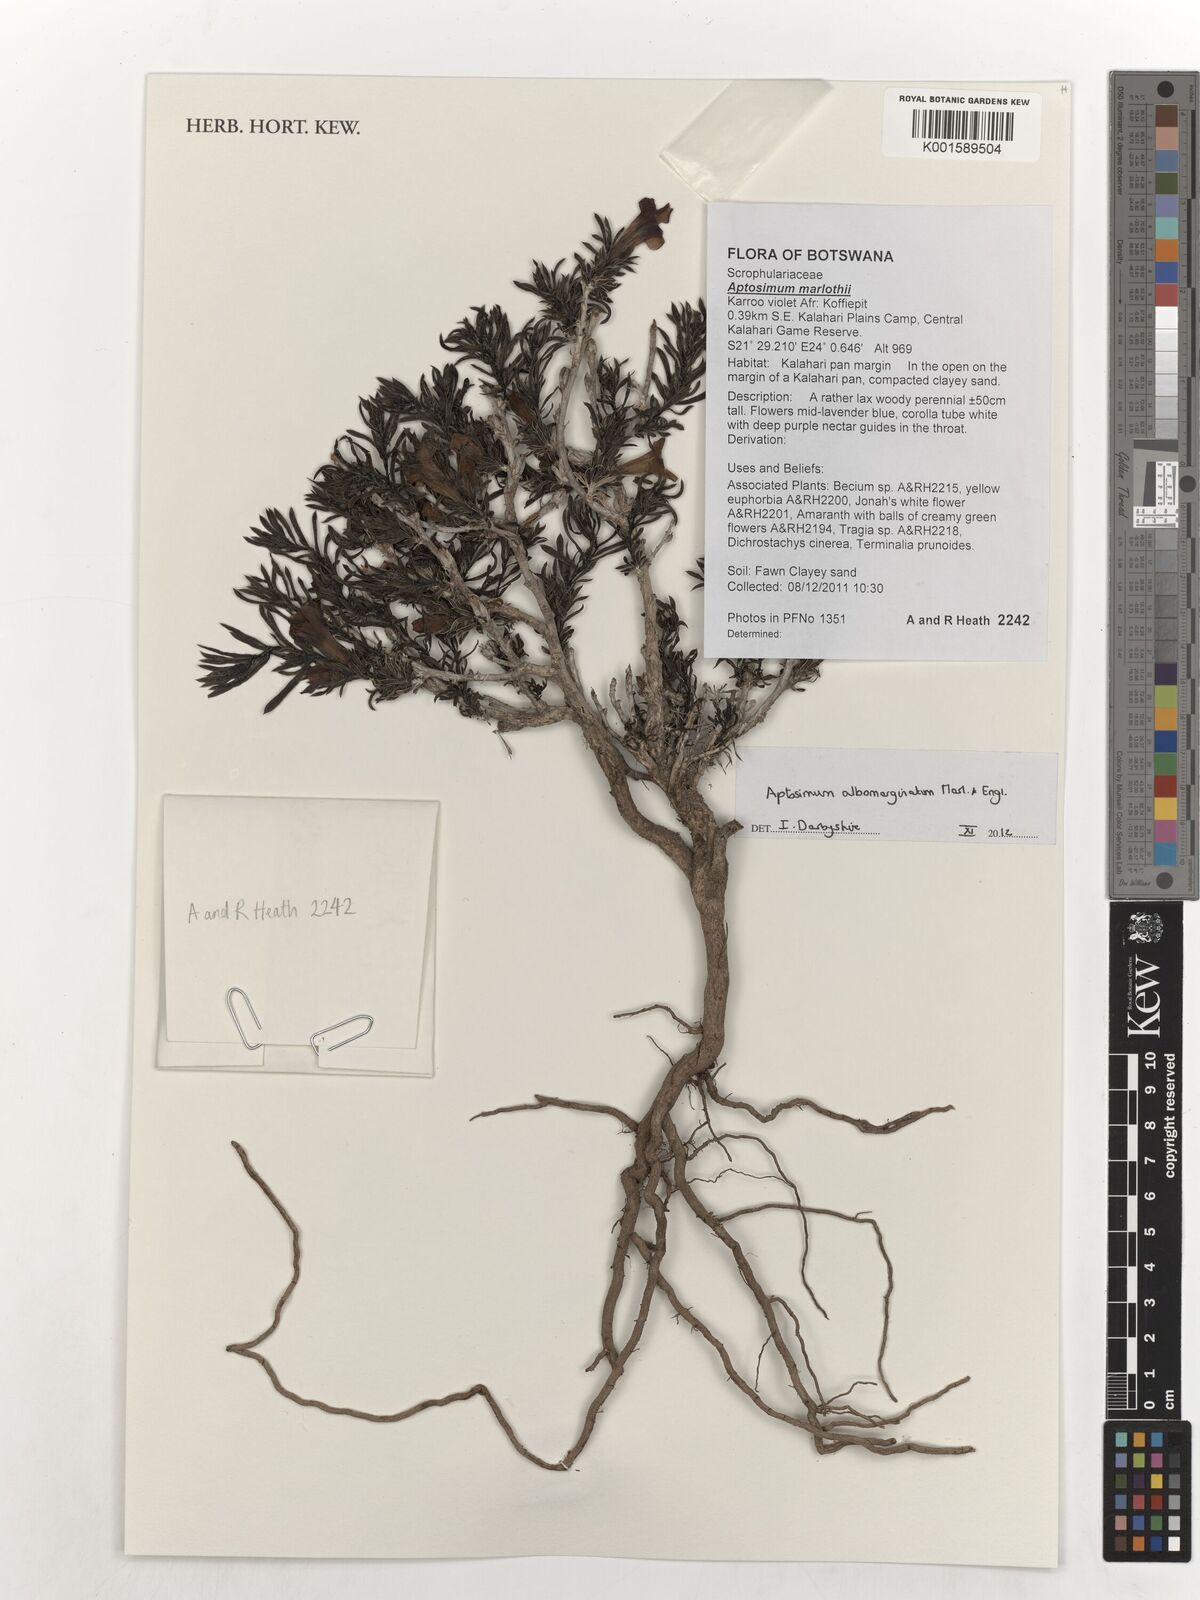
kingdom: Plantae
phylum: Tracheophyta
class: Magnoliopsida
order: Lamiales
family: Scrophulariaceae
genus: Aptosimum
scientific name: Aptosimum albomarginatum
